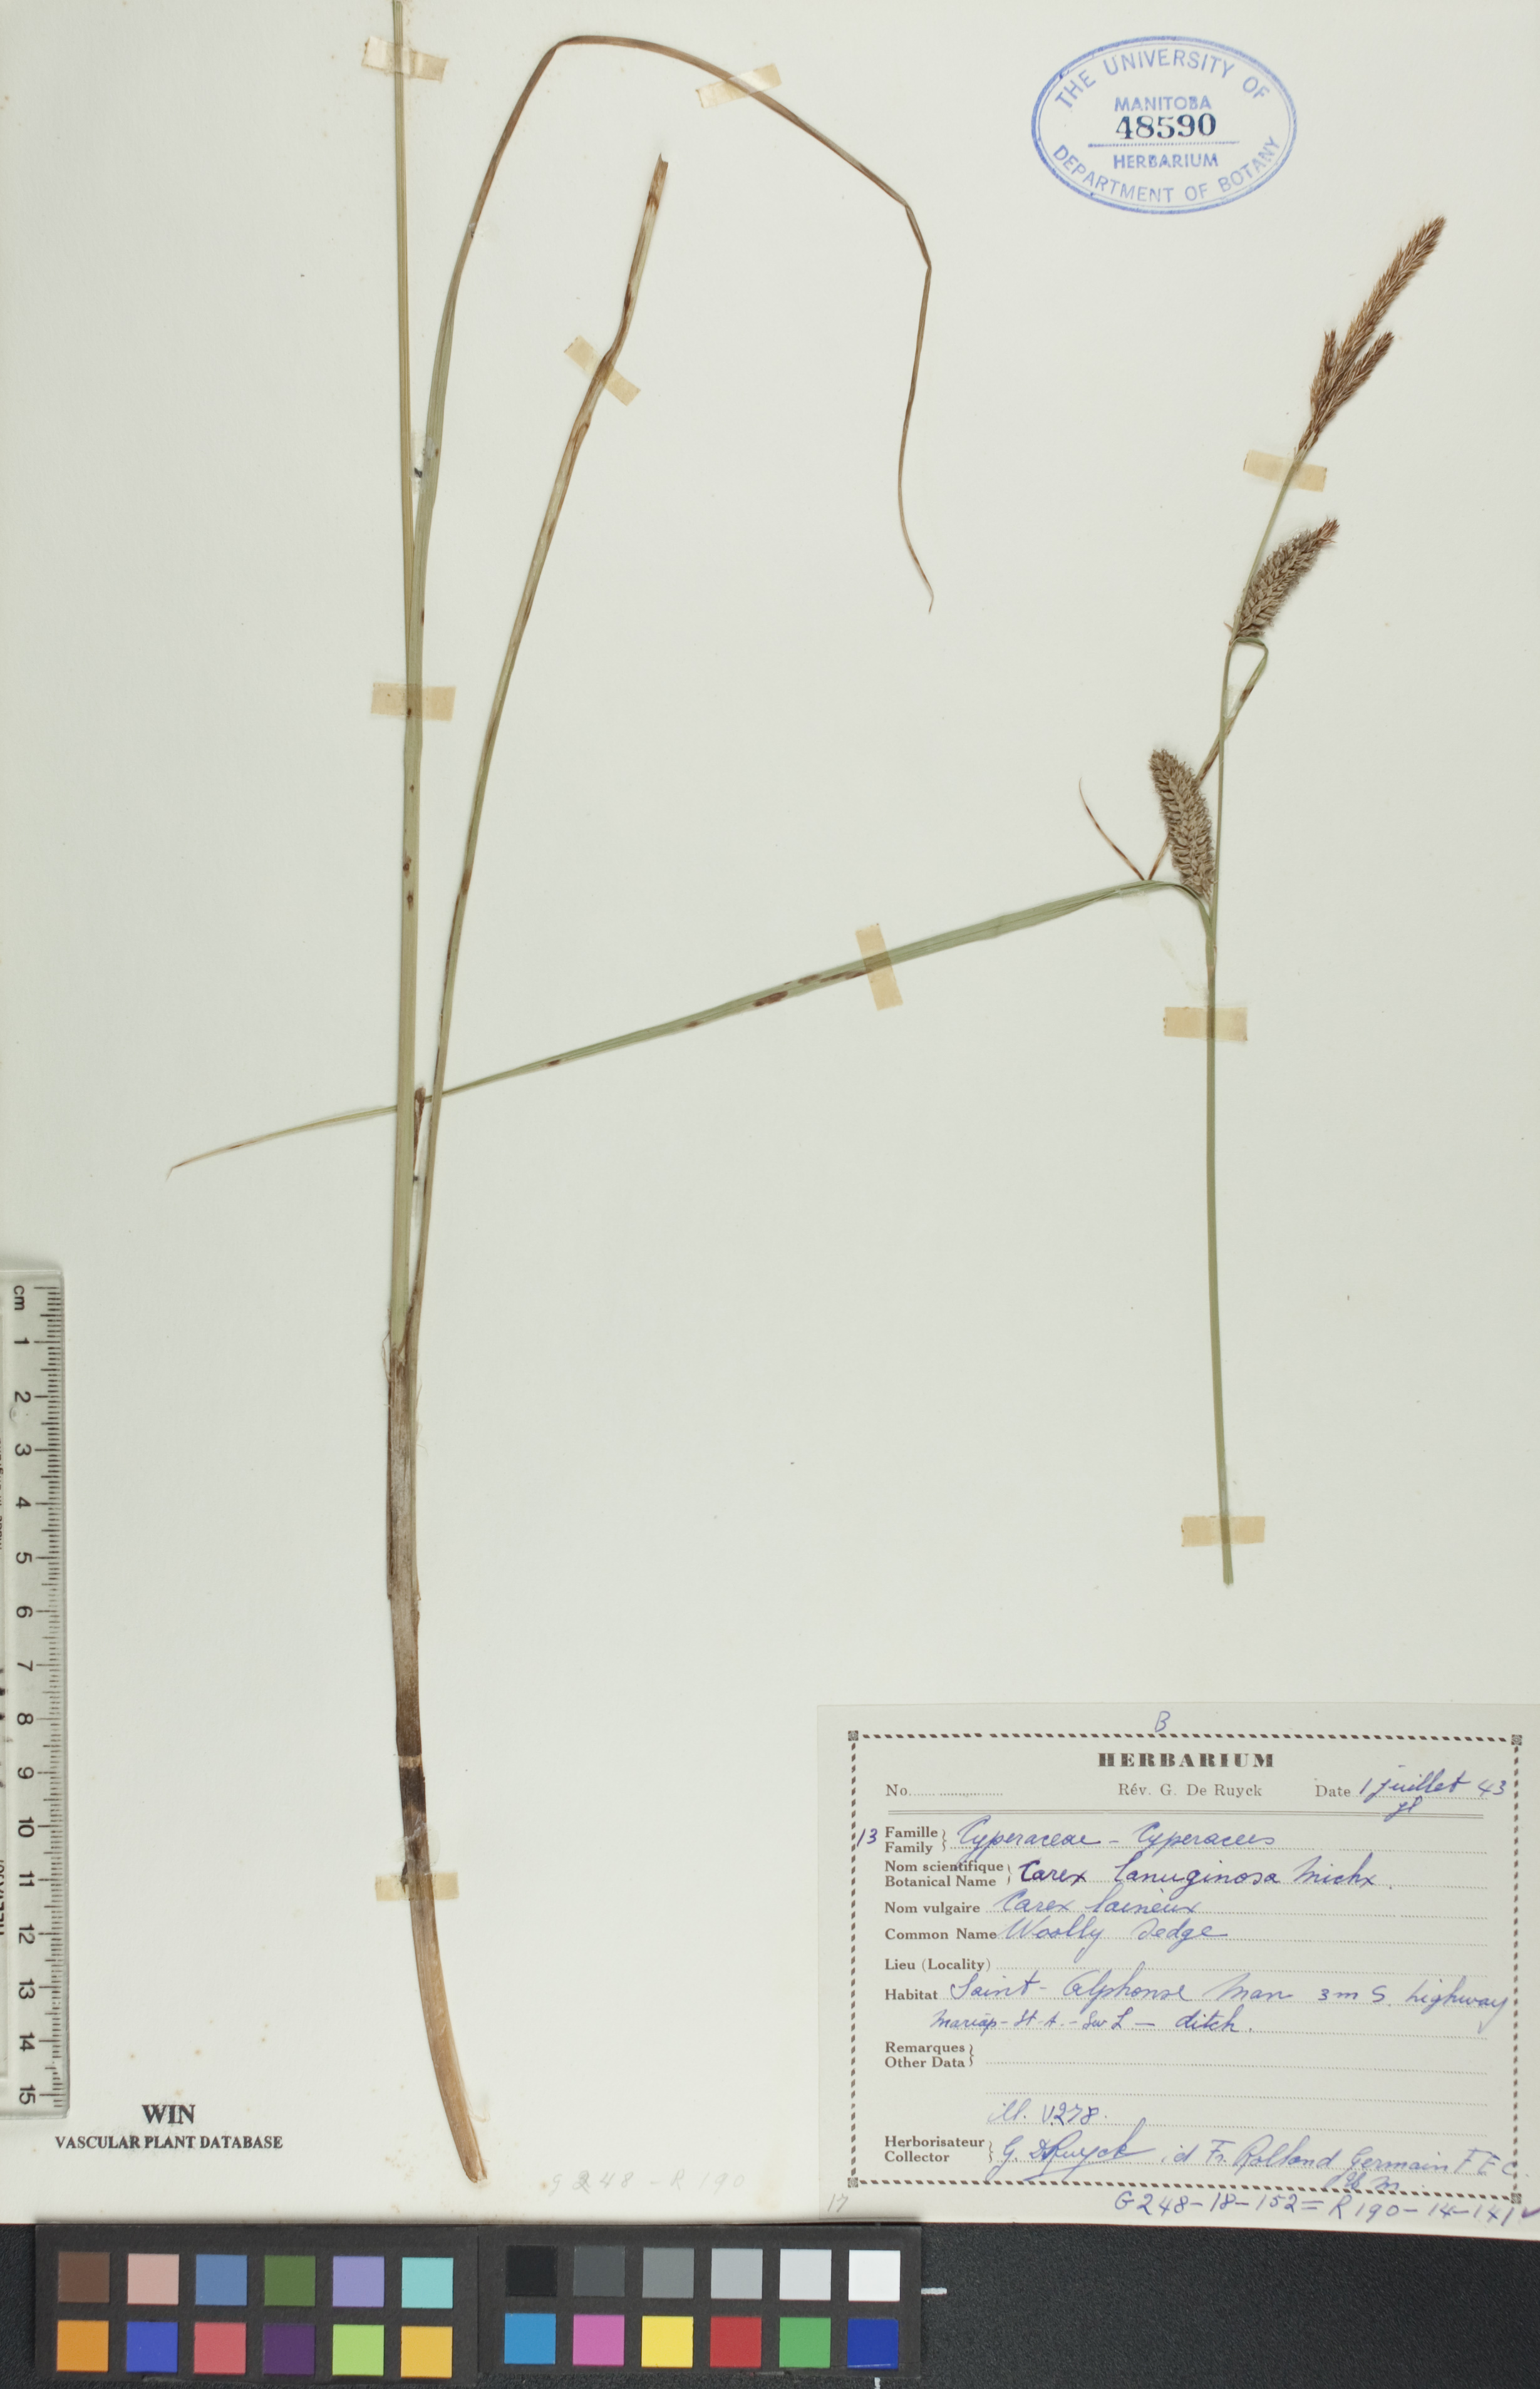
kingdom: Plantae
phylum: Tracheophyta
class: Liliopsida
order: Poales
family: Cyperaceae
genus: Carex
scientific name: Carex lasiocarpa
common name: Slender sedge
